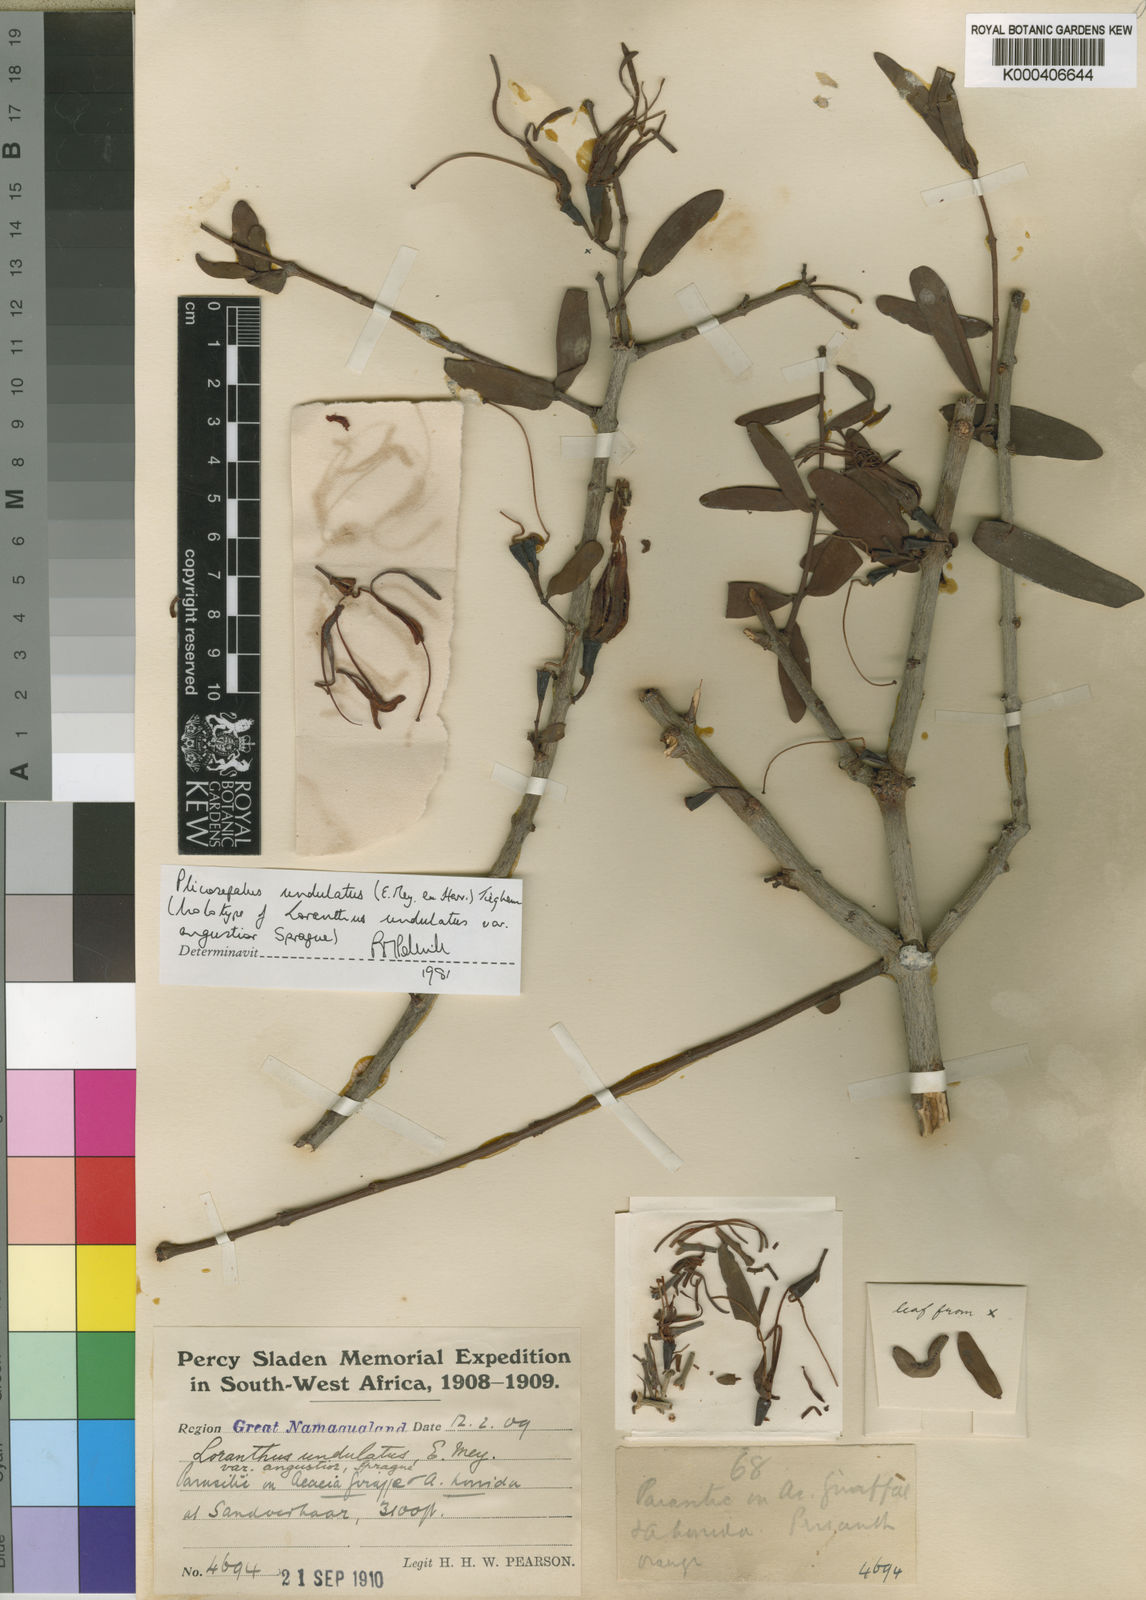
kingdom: Plantae
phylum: Tracheophyta
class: Magnoliopsida
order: Santalales
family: Loranthaceae
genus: Plicosepalus
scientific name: Plicosepalus undulatus
